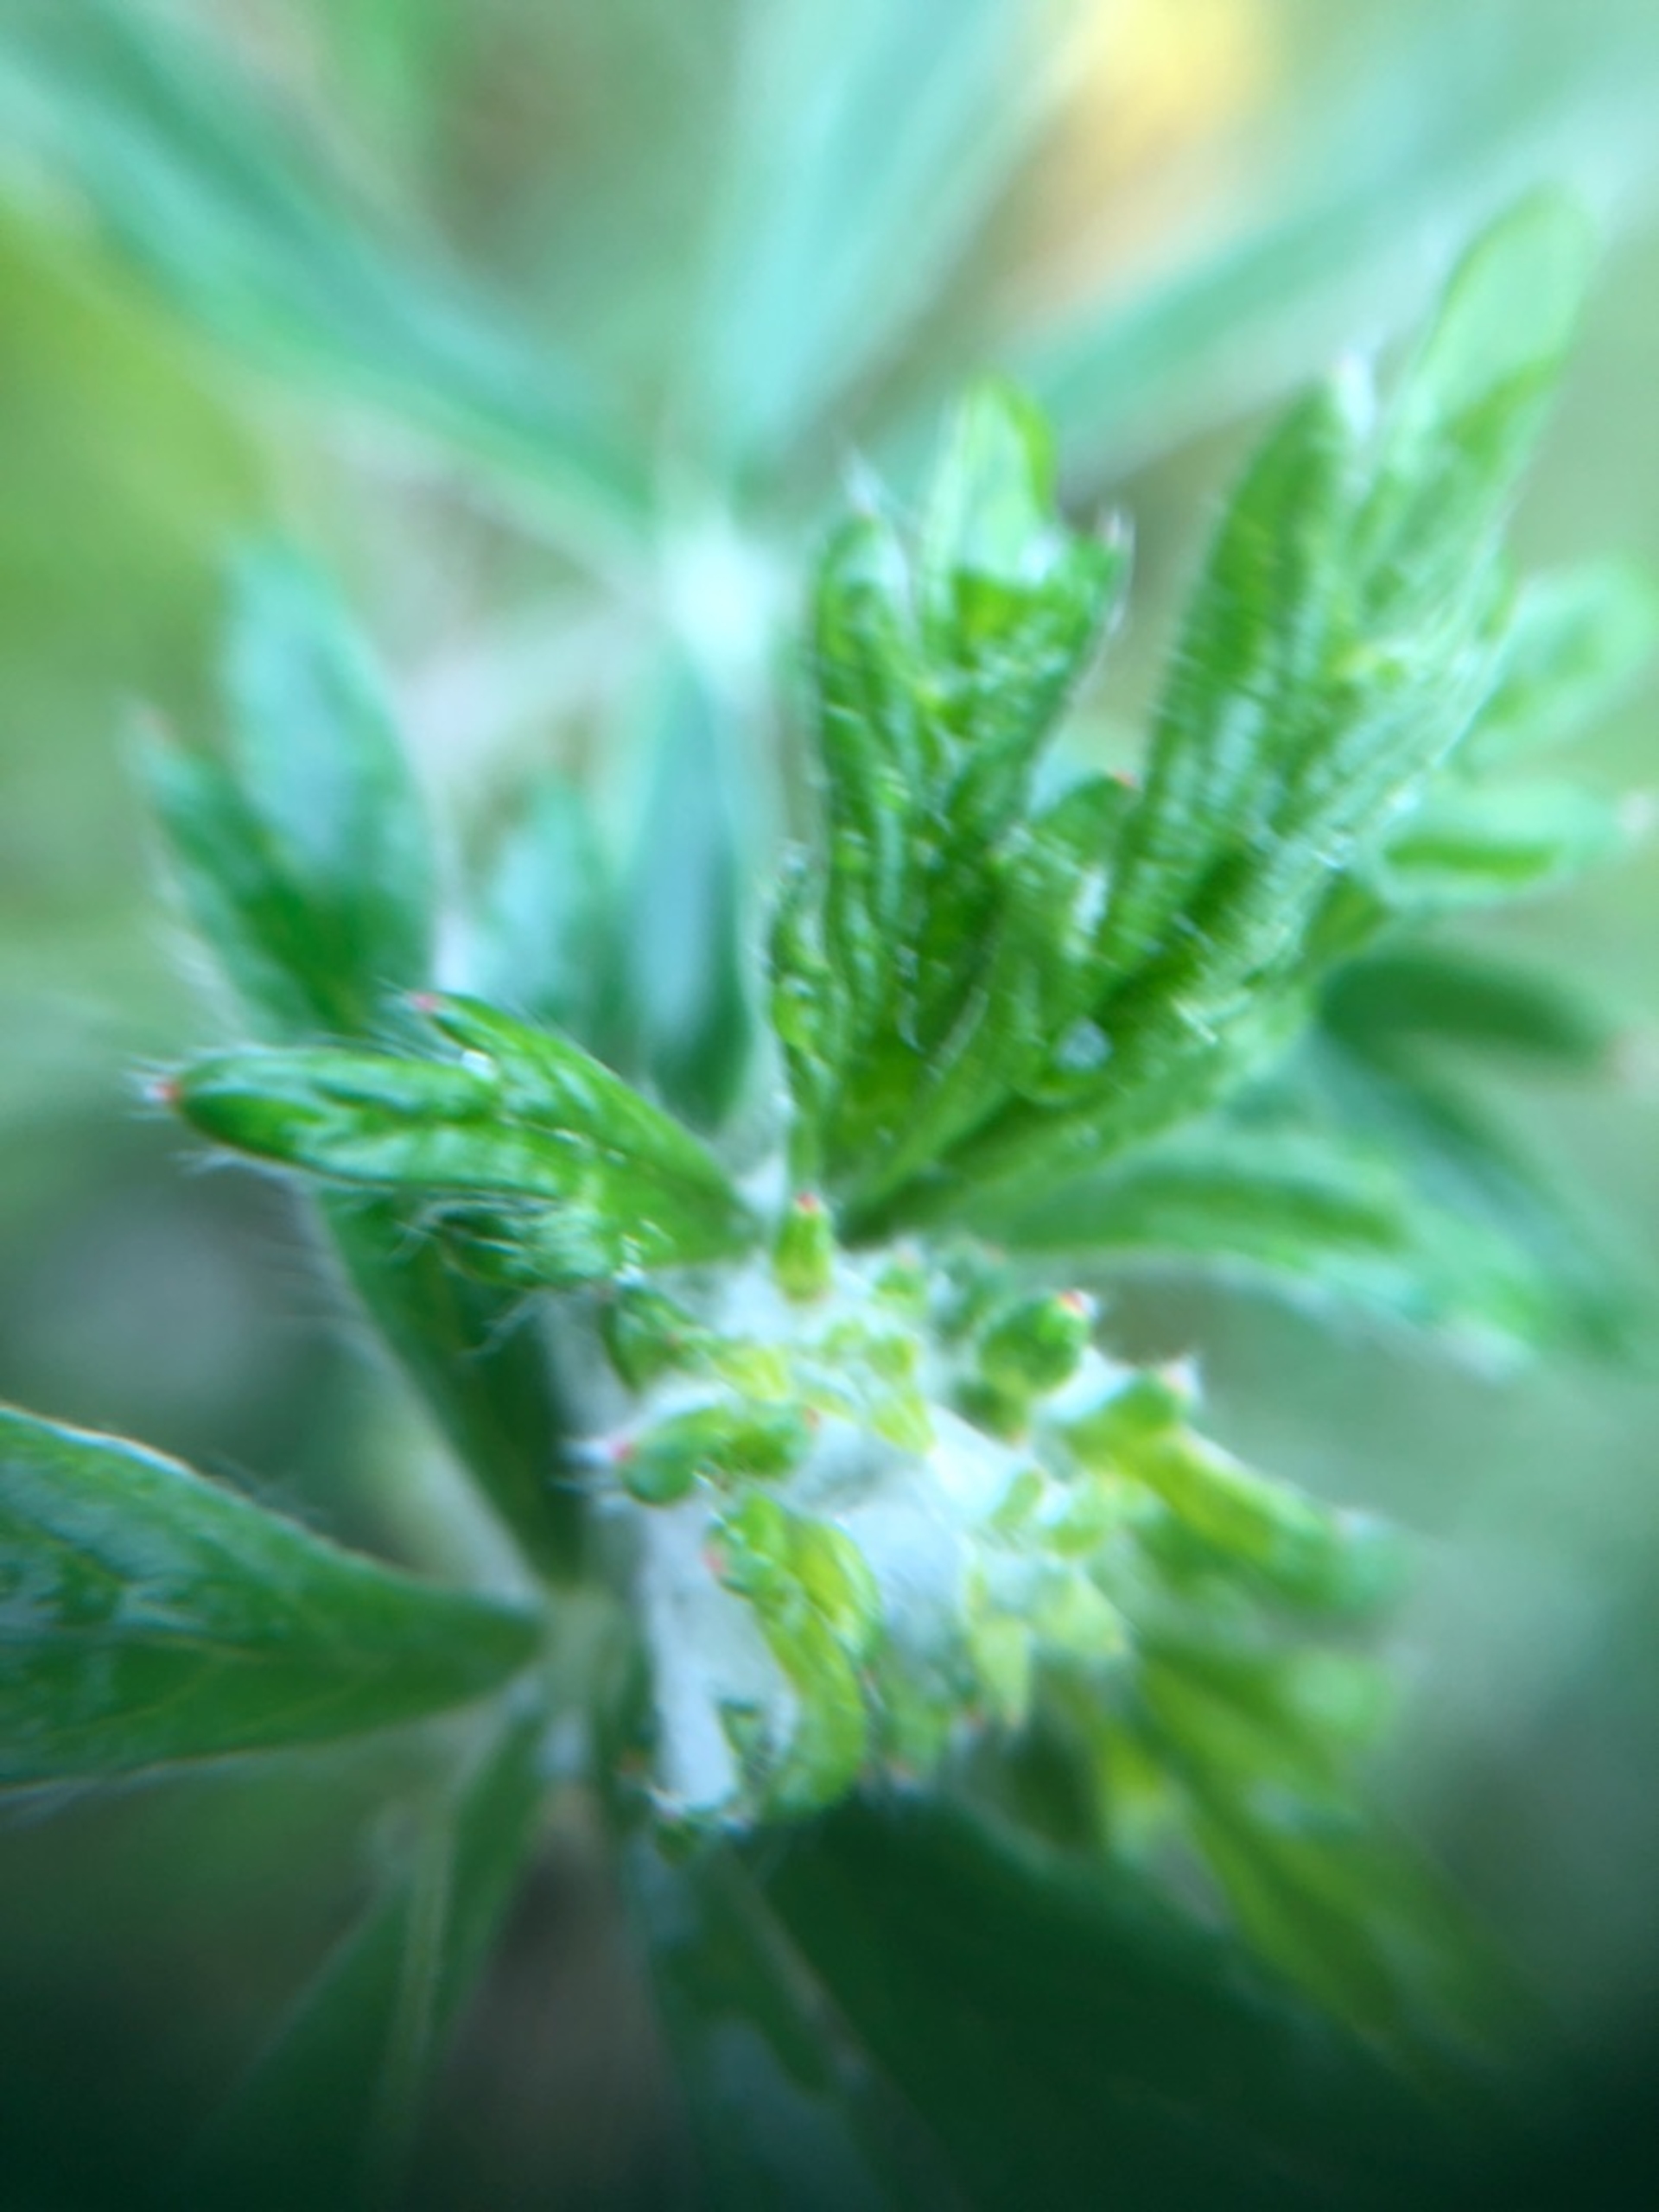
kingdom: Plantae
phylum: Tracheophyta
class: Magnoliopsida
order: Rosales
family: Rosaceae
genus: Potentilla
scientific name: Potentilla argentea
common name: Sølv-potentil
